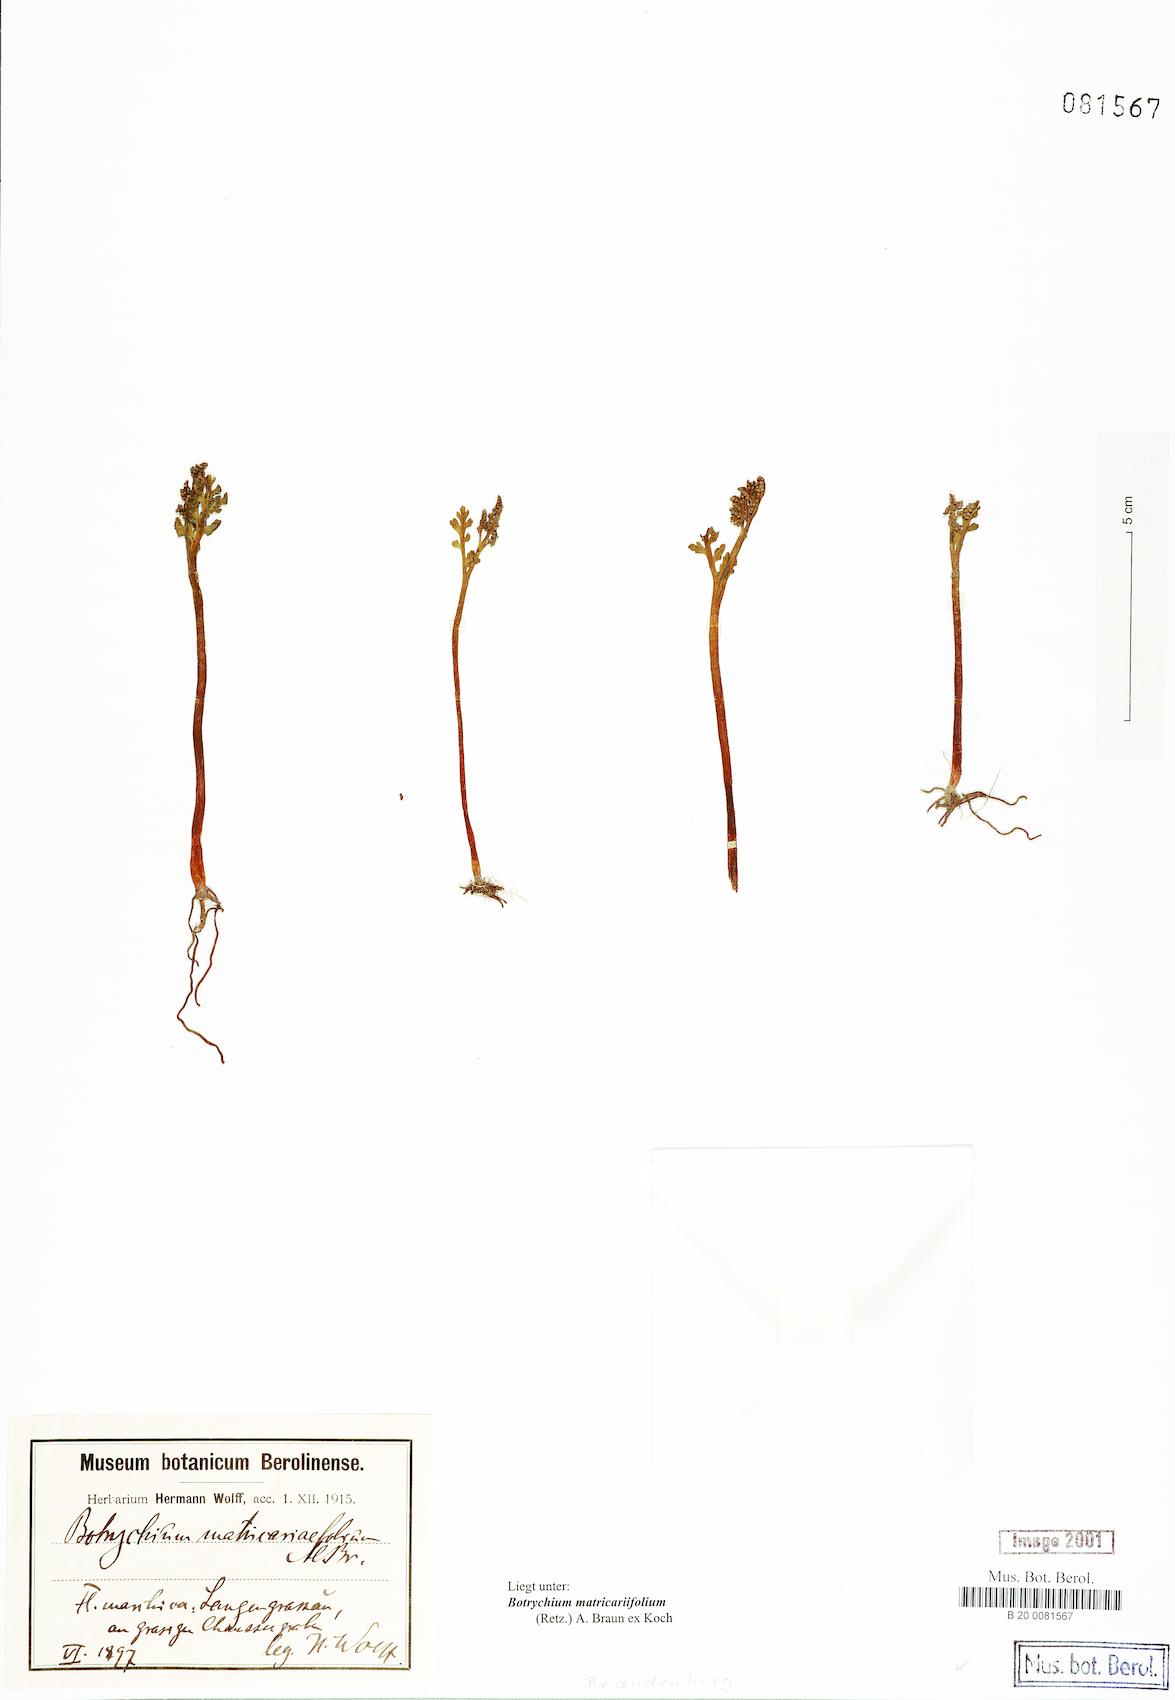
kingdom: Plantae
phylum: Tracheophyta
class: Polypodiopsida
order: Ophioglossales
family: Ophioglossaceae
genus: Botrychium
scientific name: Botrychium matricariifolium
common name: Branched moonwort
